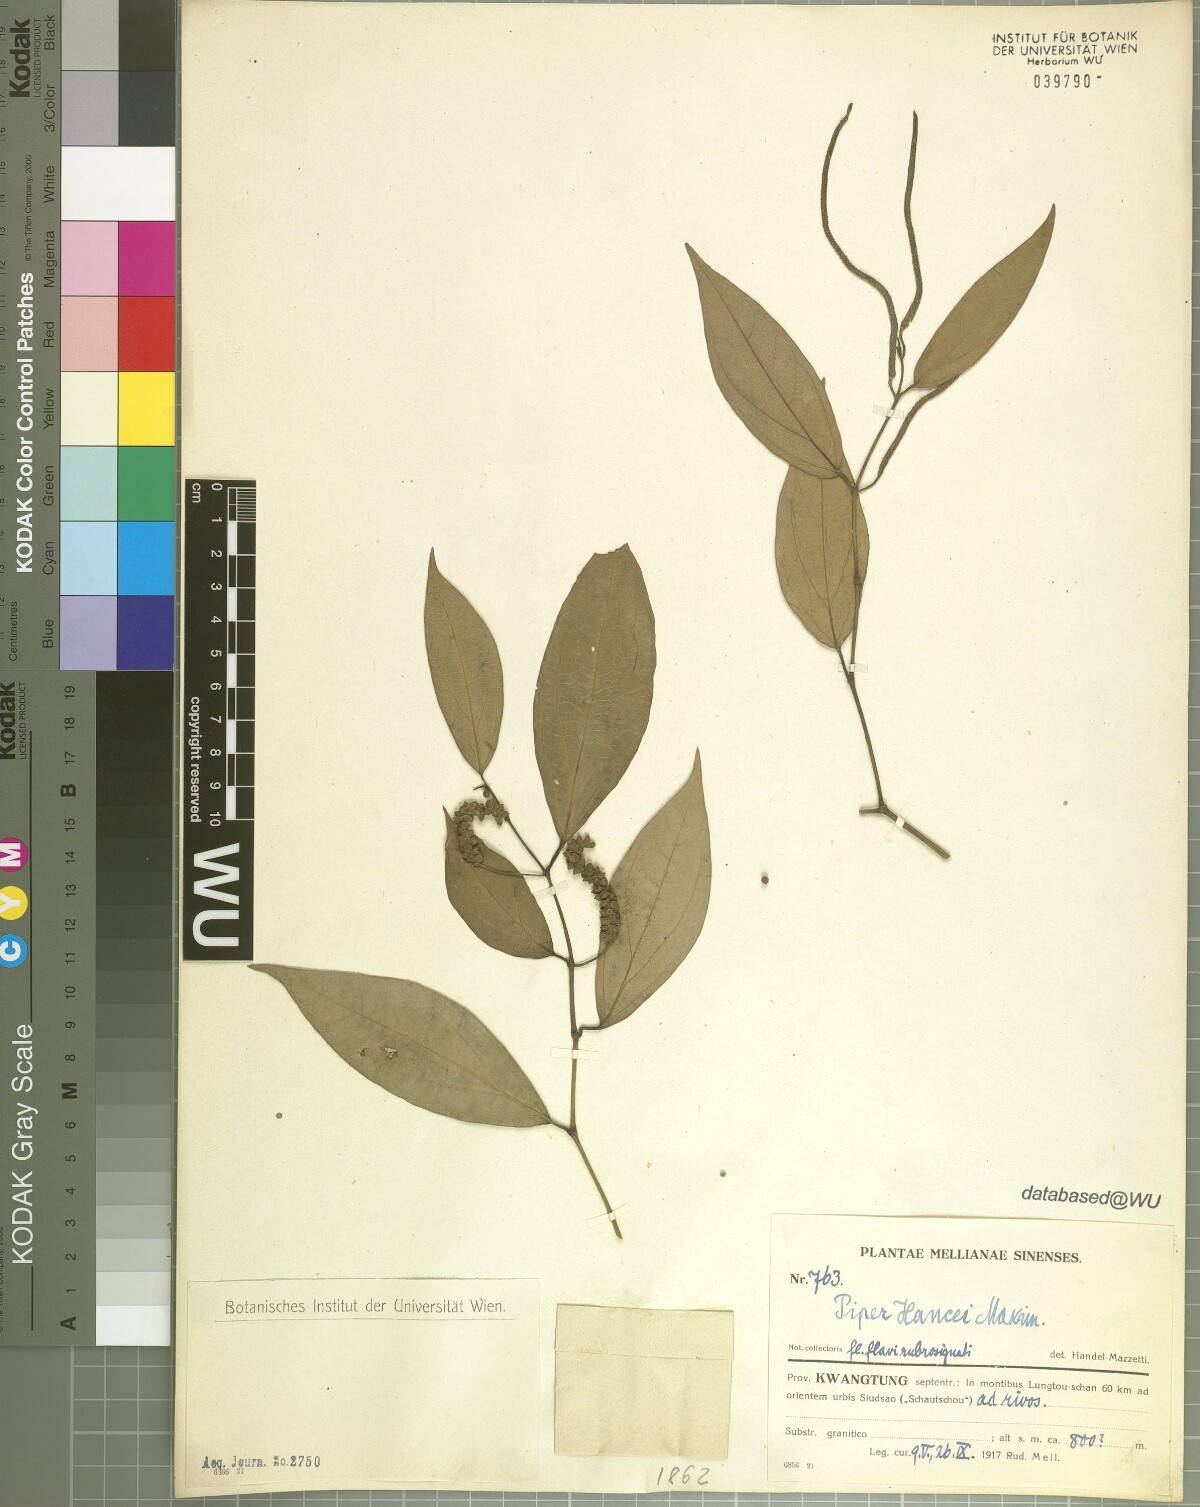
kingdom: Plantae
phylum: Tracheophyta
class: Magnoliopsida
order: Piperales
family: Piperaceae
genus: Piper
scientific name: Piper hancei
